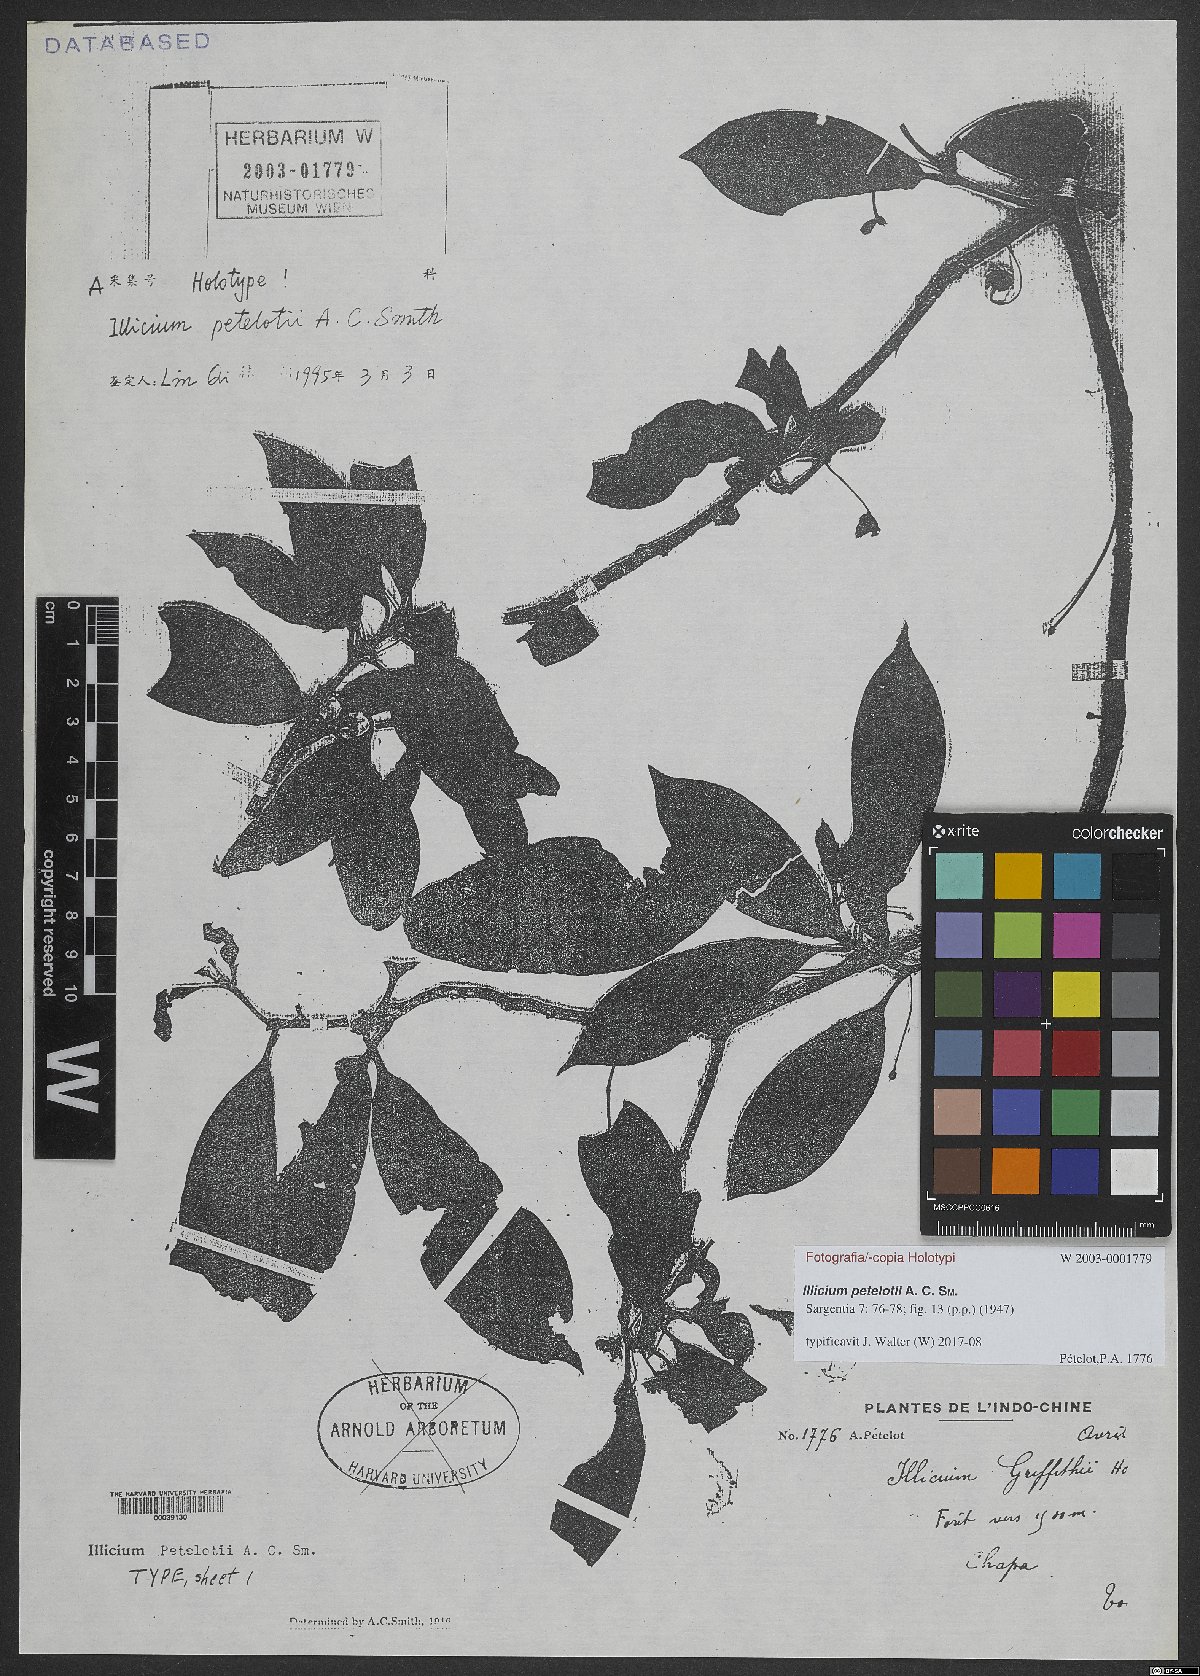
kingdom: Plantae
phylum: Tracheophyta
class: Magnoliopsida
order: Austrobaileyales
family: Schisandraceae
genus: Illicium
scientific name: Illicium petelotii
